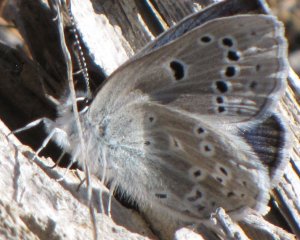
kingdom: Animalia
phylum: Arthropoda
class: Insecta
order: Lepidoptera
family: Lycaenidae
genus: Icaricia
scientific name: Icaricia icarioides
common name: Boisduval's Blue
